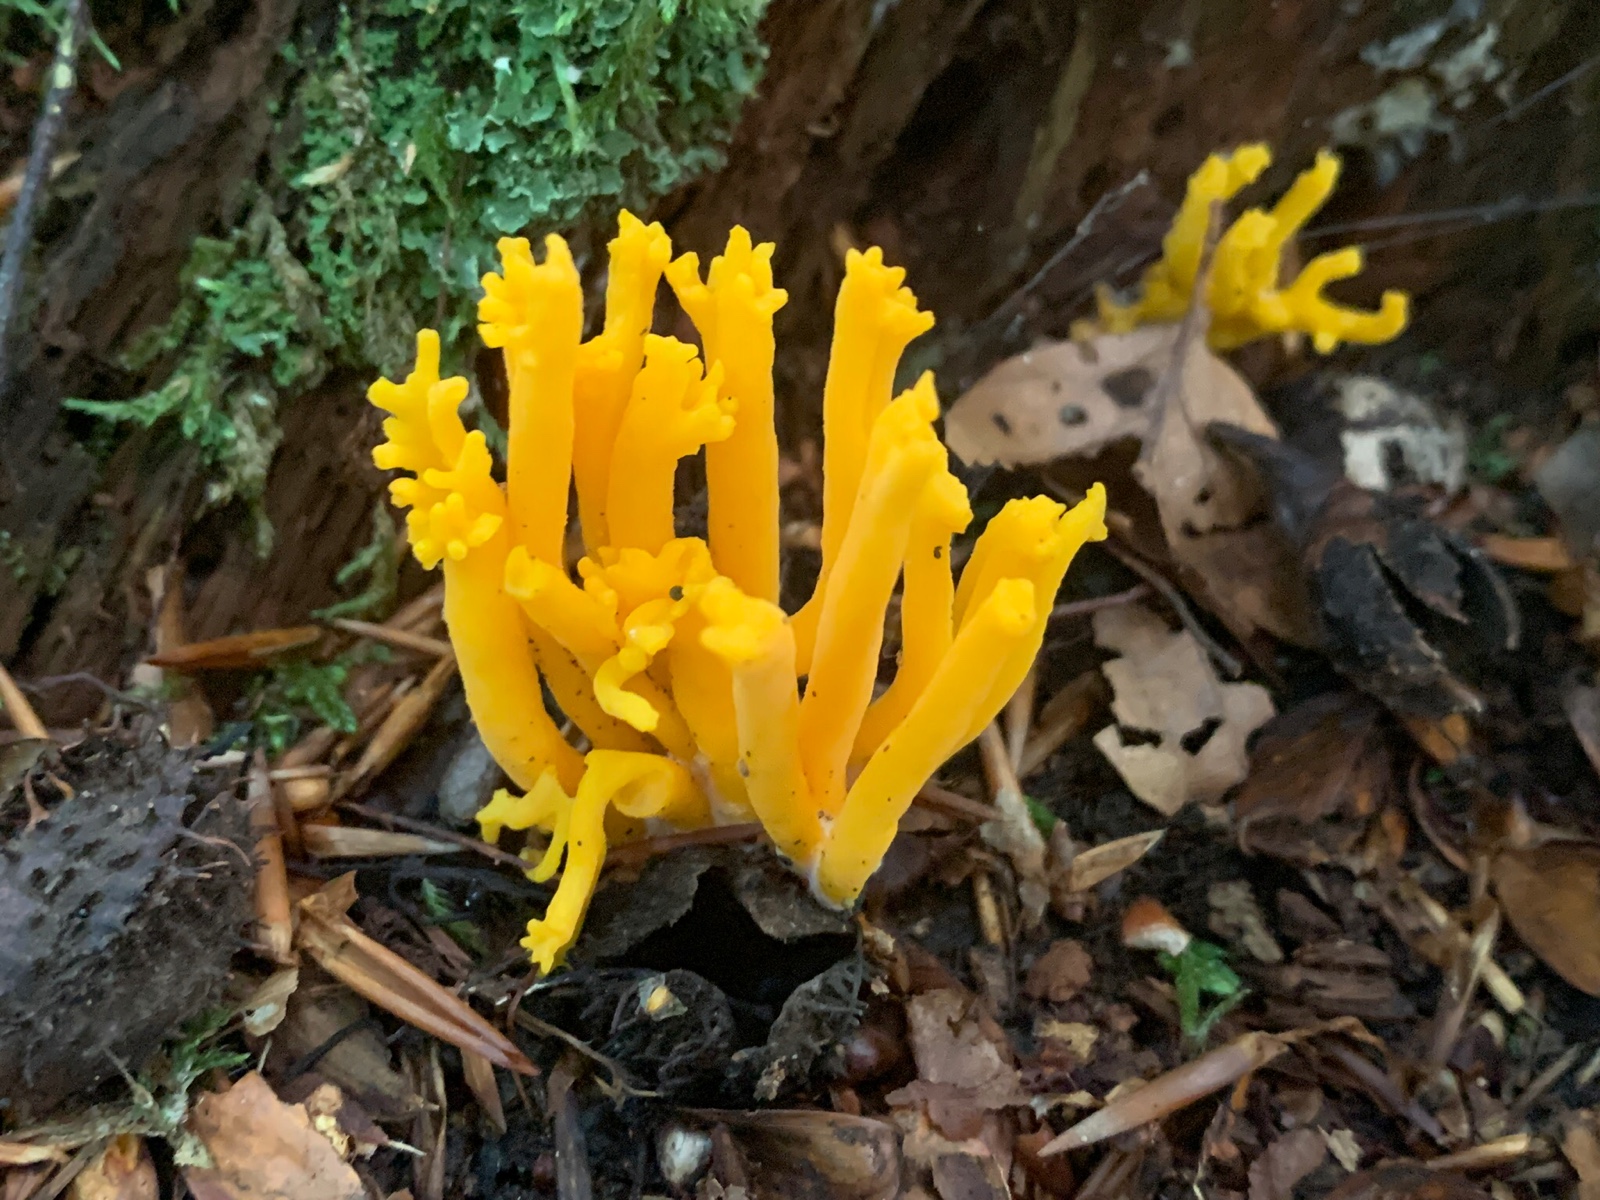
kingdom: Fungi
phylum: Basidiomycota
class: Dacrymycetes
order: Dacrymycetales
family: Dacrymycetaceae
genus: Calocera
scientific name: Calocera viscosa
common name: almindelig guldgaffel
